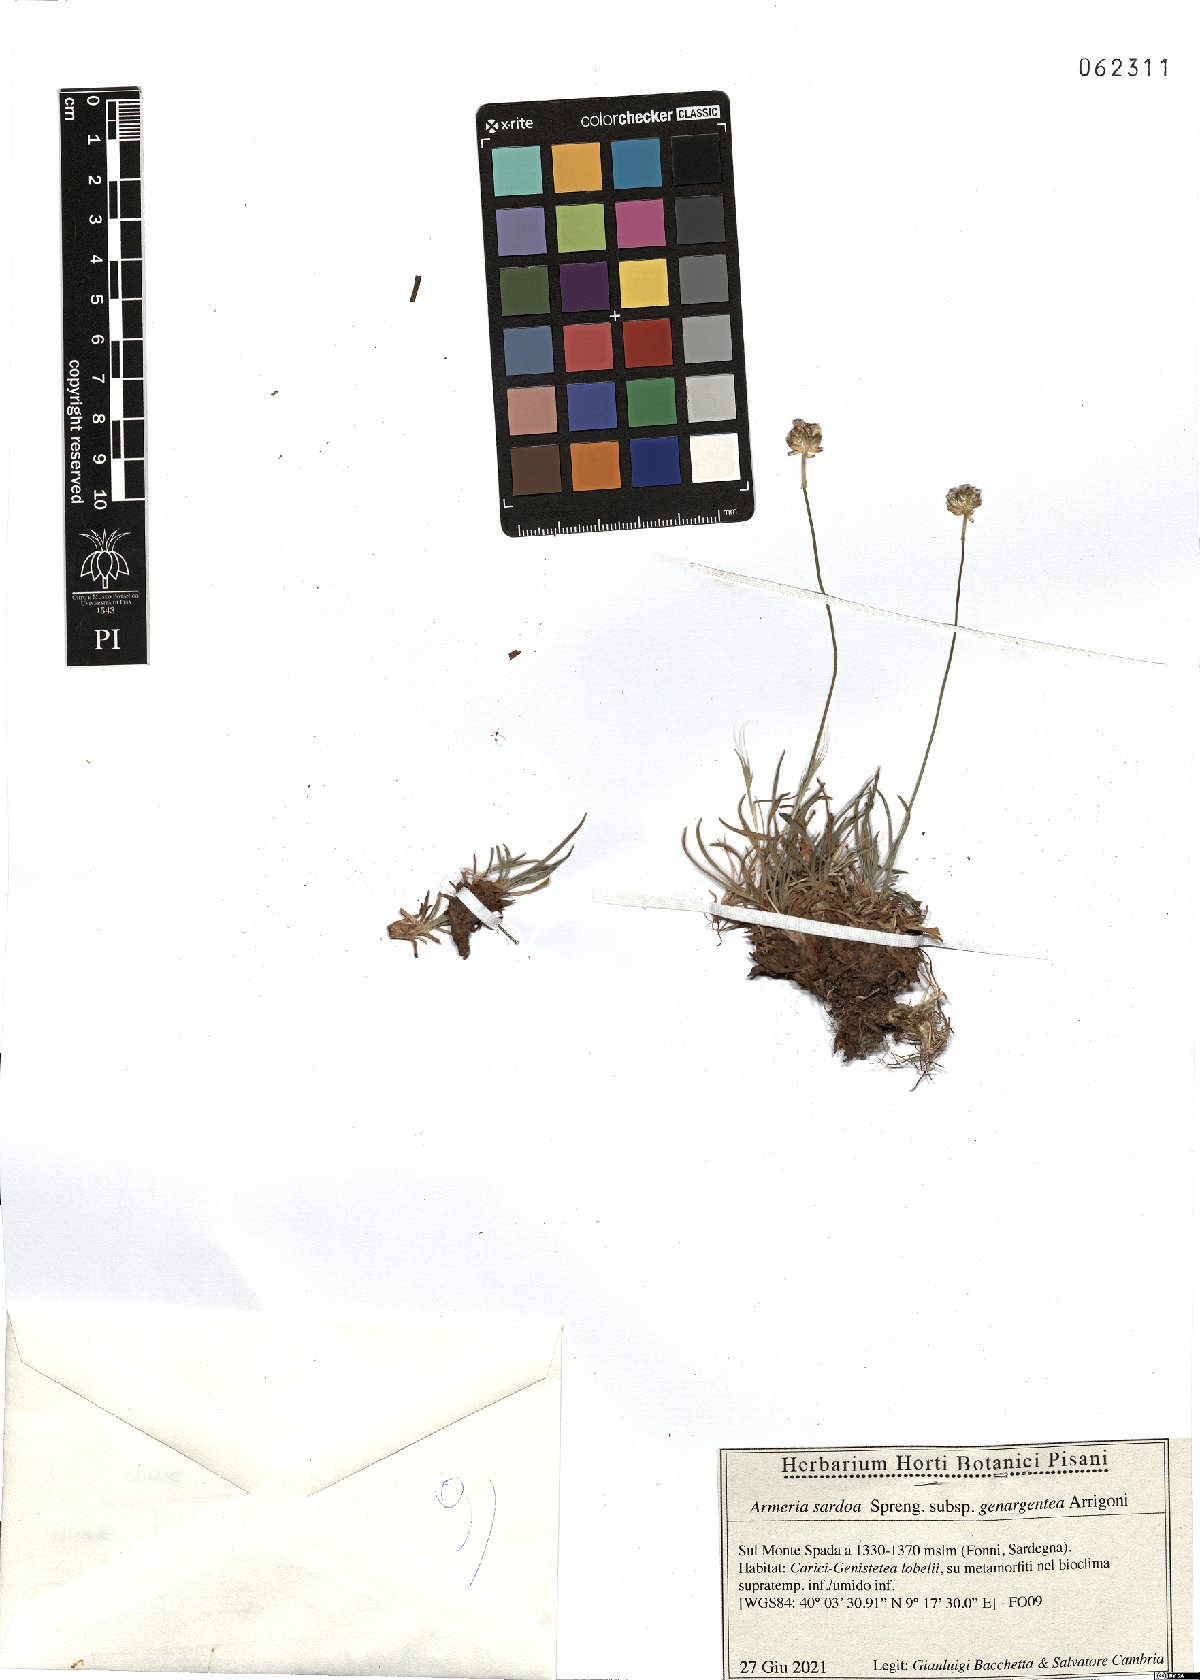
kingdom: Plantae
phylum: Tracheophyta
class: Magnoliopsida
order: Caryophyllales
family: Plumbaginaceae
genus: Armeria
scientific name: Armeria sardoa
